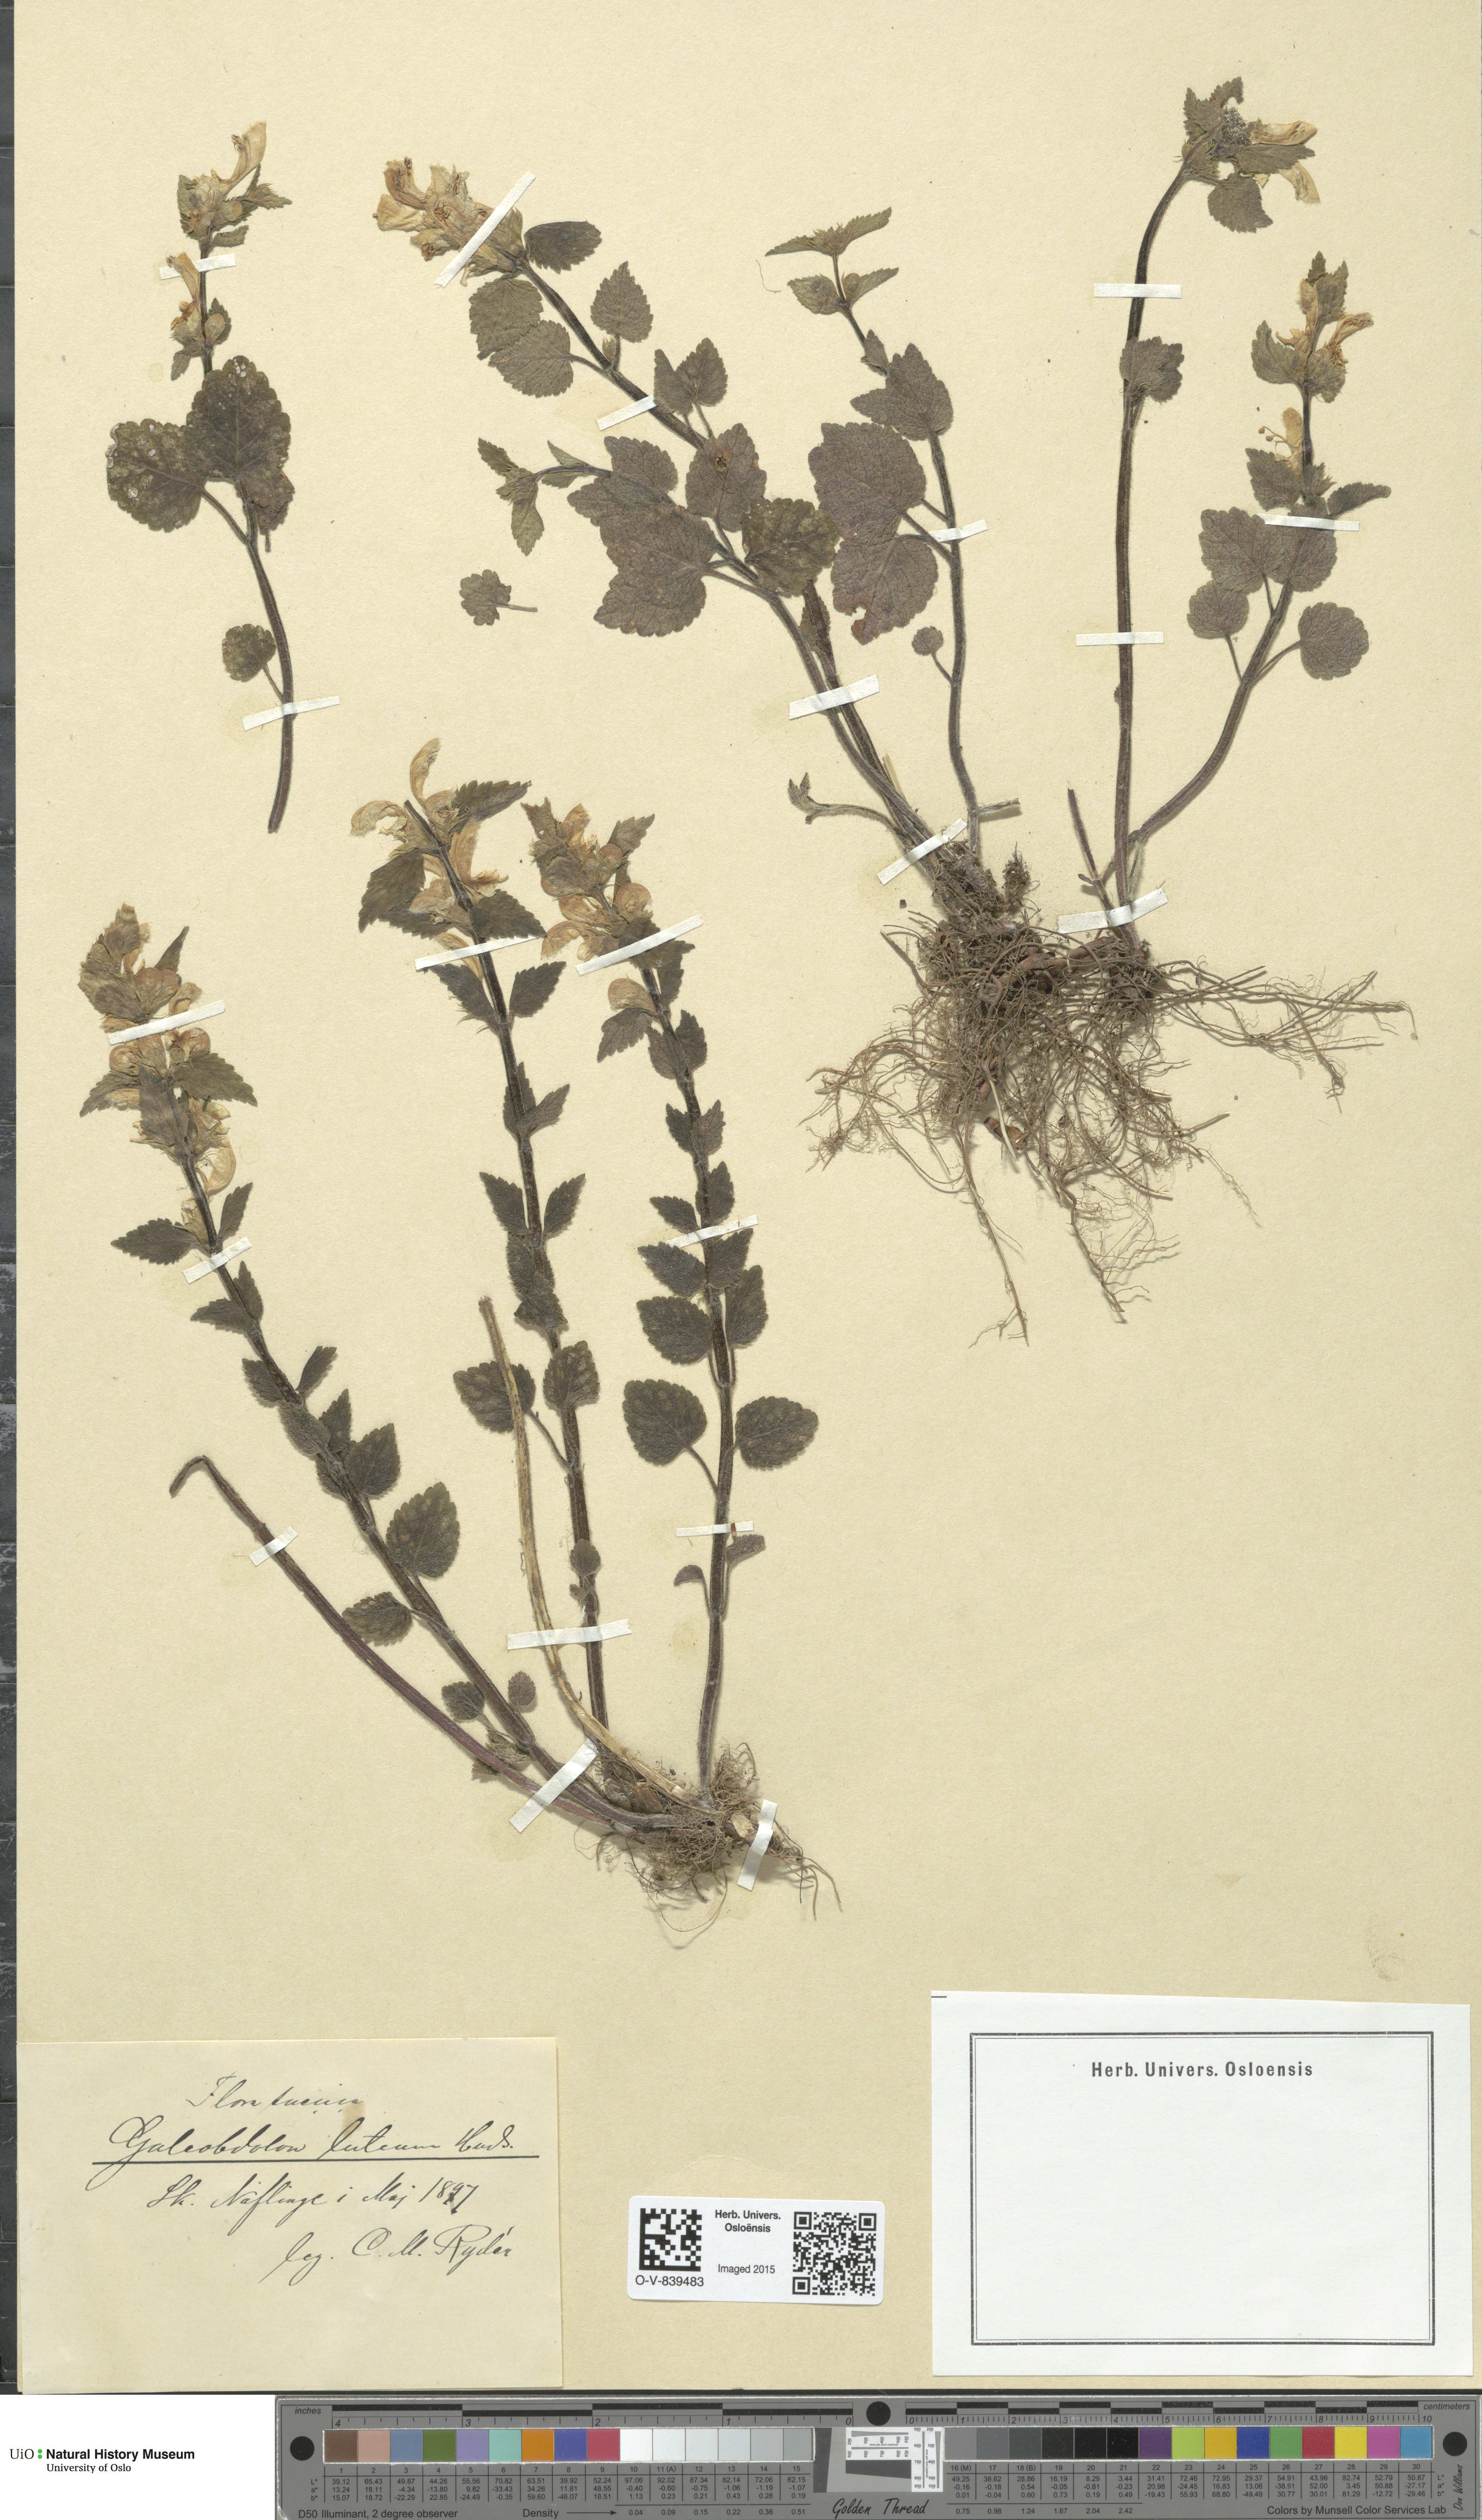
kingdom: Plantae
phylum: Tracheophyta
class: Magnoliopsida
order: Lamiales
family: Lamiaceae
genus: Lamium
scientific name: Lamium galeobdolon
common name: Yellow archangel
